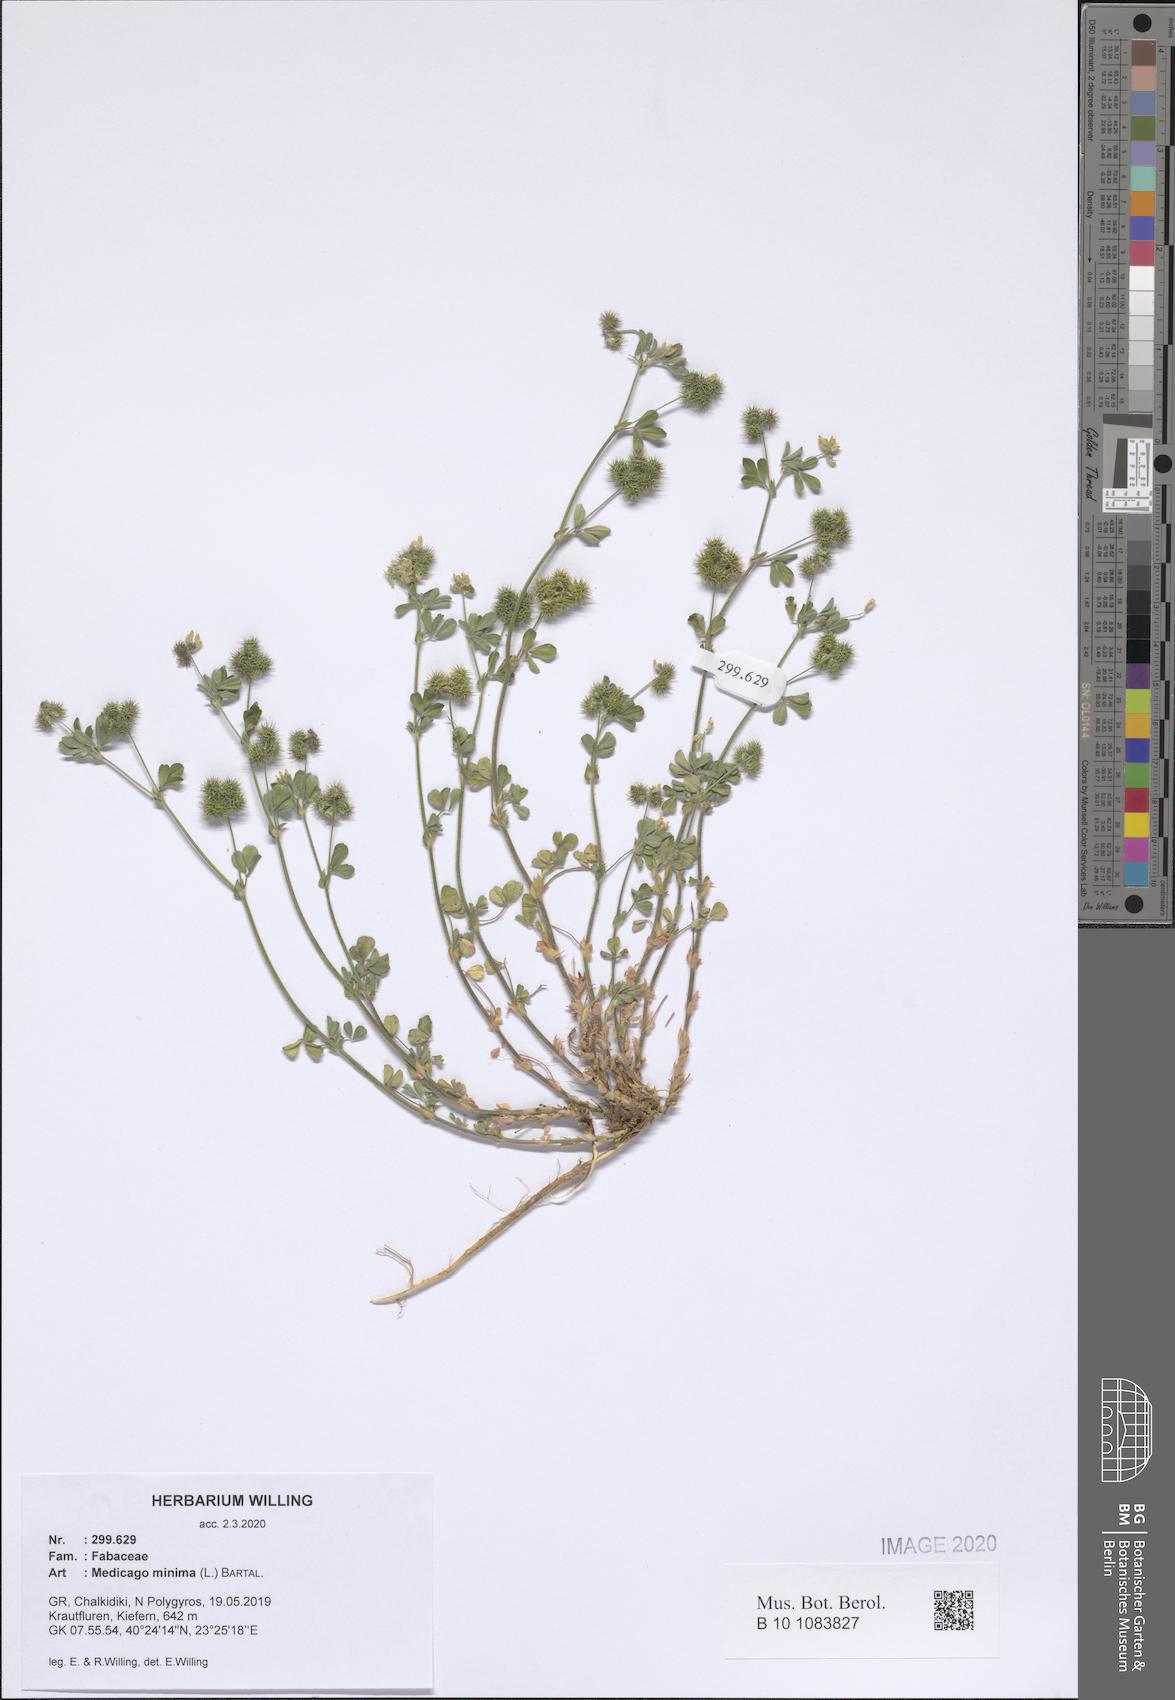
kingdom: Plantae
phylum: Tracheophyta
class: Magnoliopsida
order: Fabales
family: Fabaceae
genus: Medicago
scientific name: Medicago minima
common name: Little bur-clover
